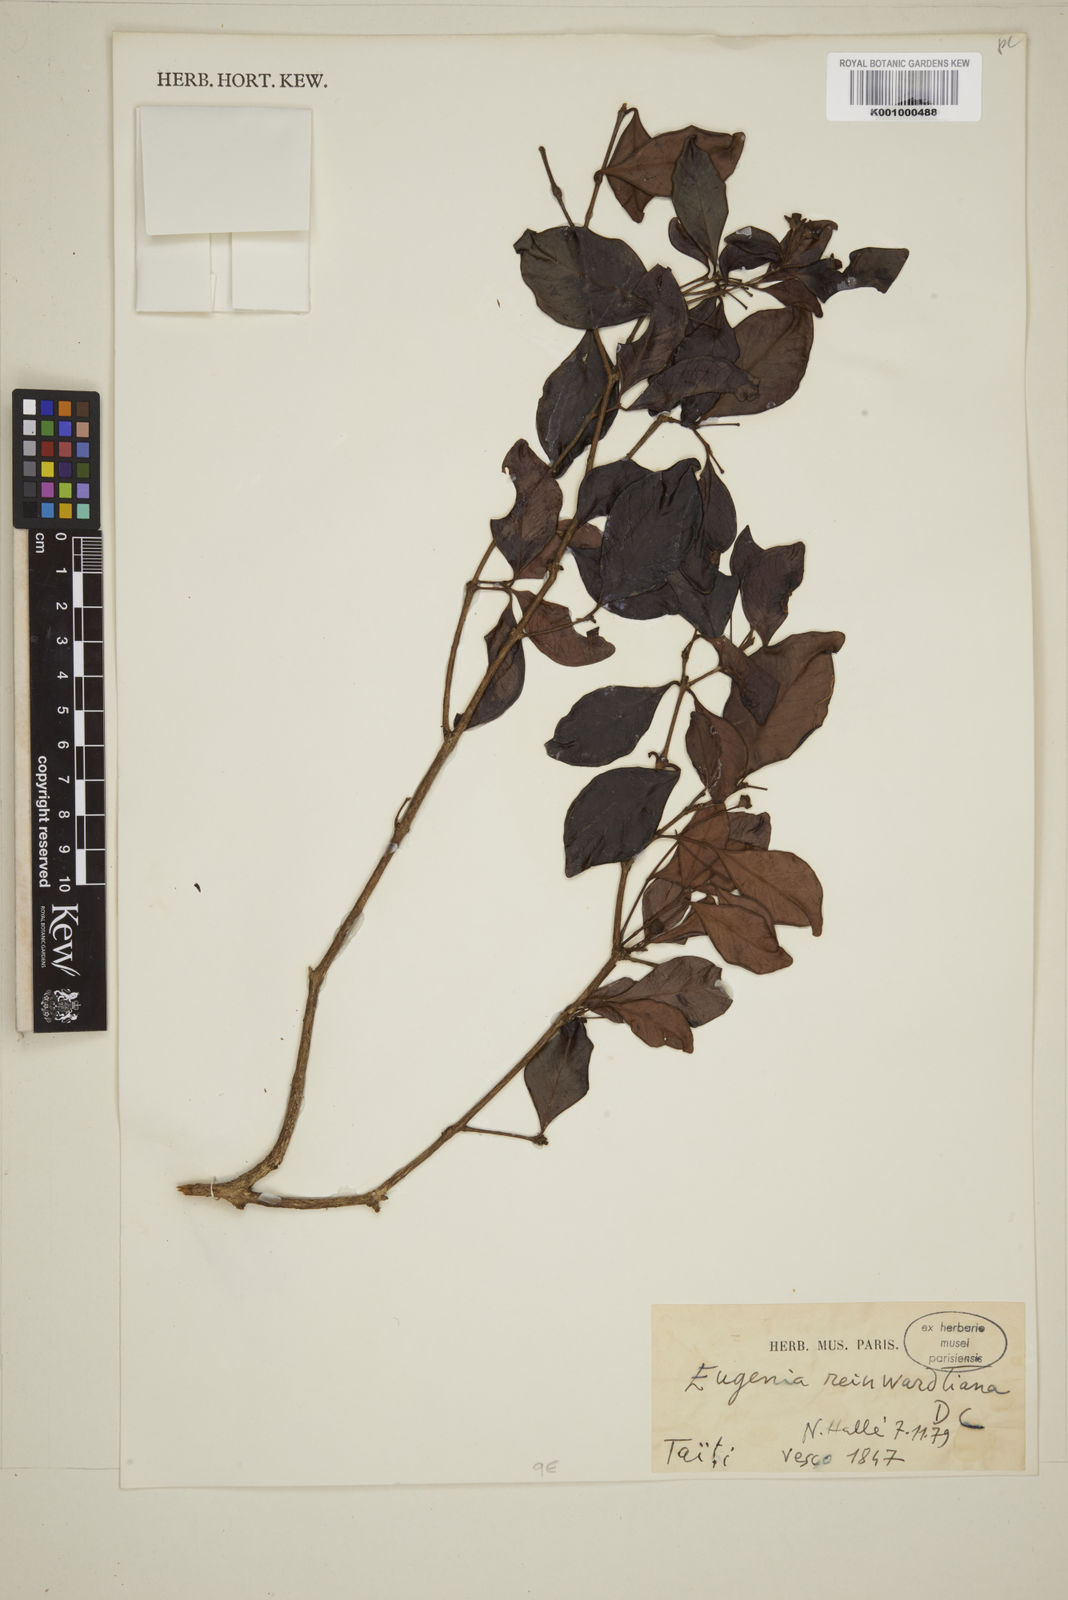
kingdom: Plantae
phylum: Tracheophyta
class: Magnoliopsida
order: Myrtales
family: Myrtaceae
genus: Eugenia
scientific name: Eugenia reinwardtiana
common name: Cedar bay-cherry
